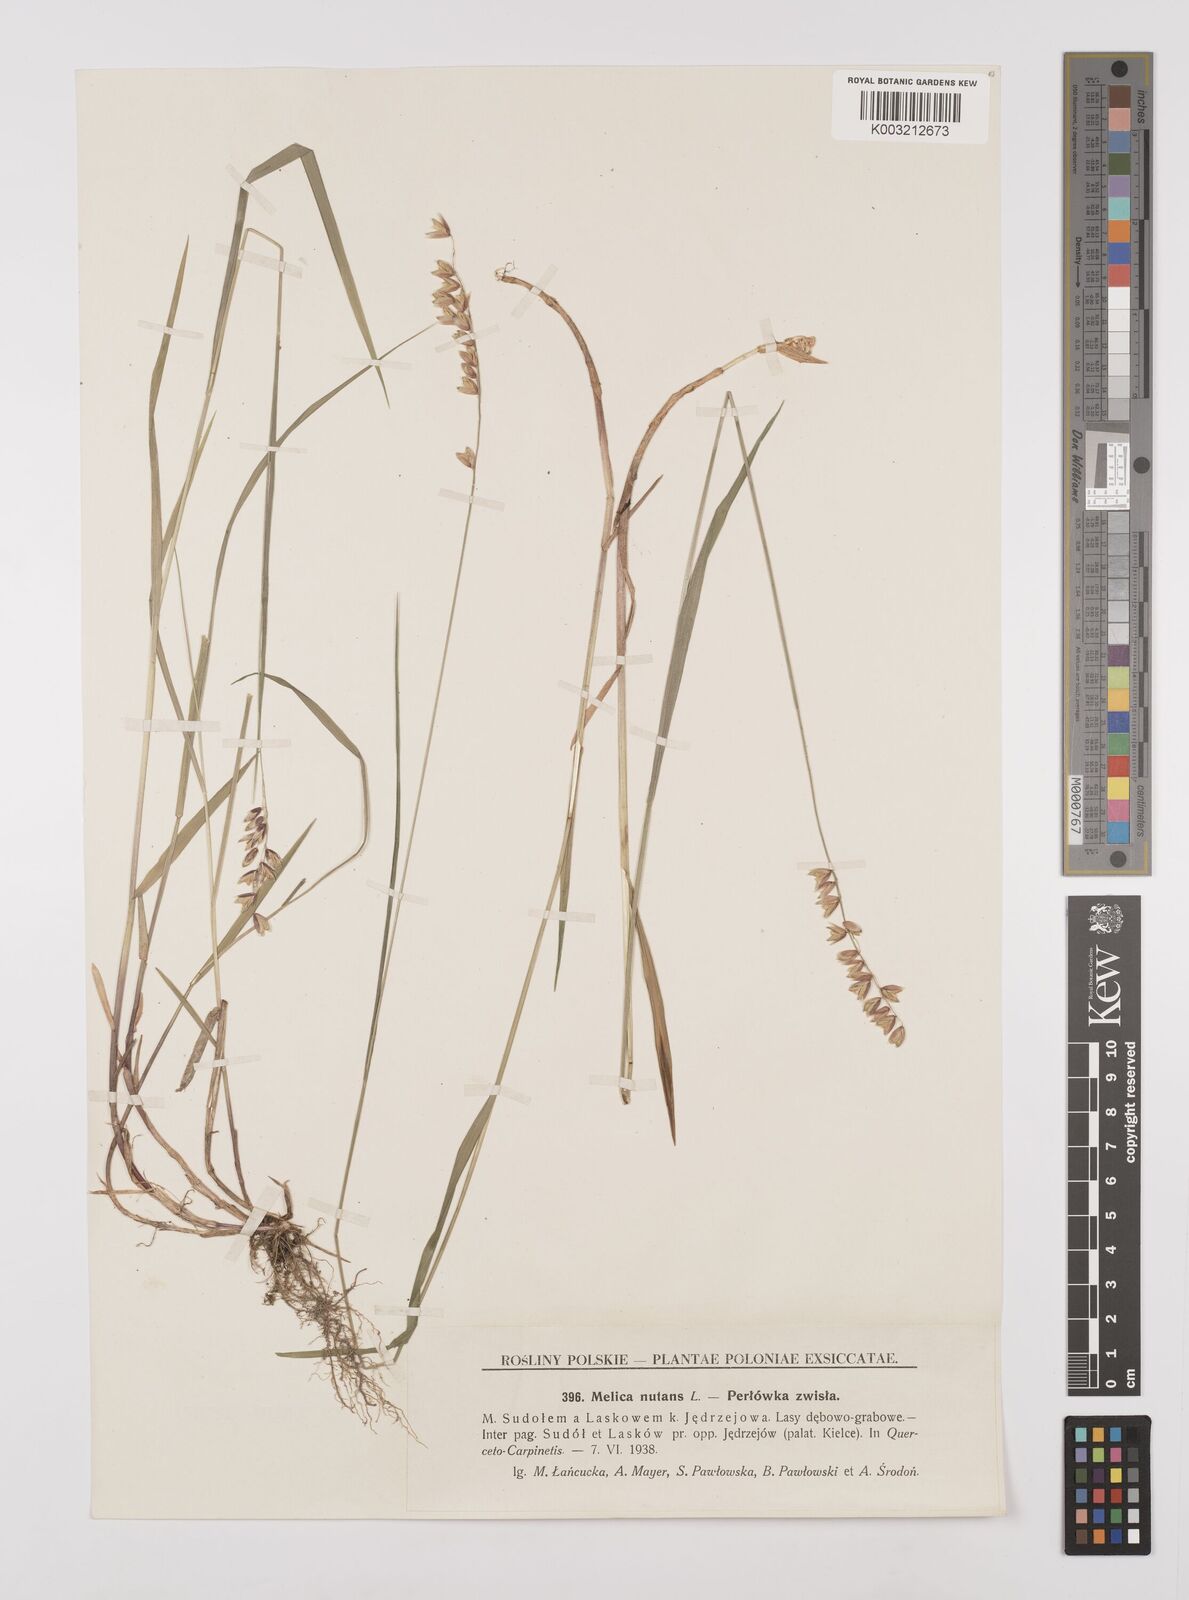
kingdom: Plantae
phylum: Tracheophyta
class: Liliopsida
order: Poales
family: Poaceae
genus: Melica
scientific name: Melica nutans
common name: Mountain melick
